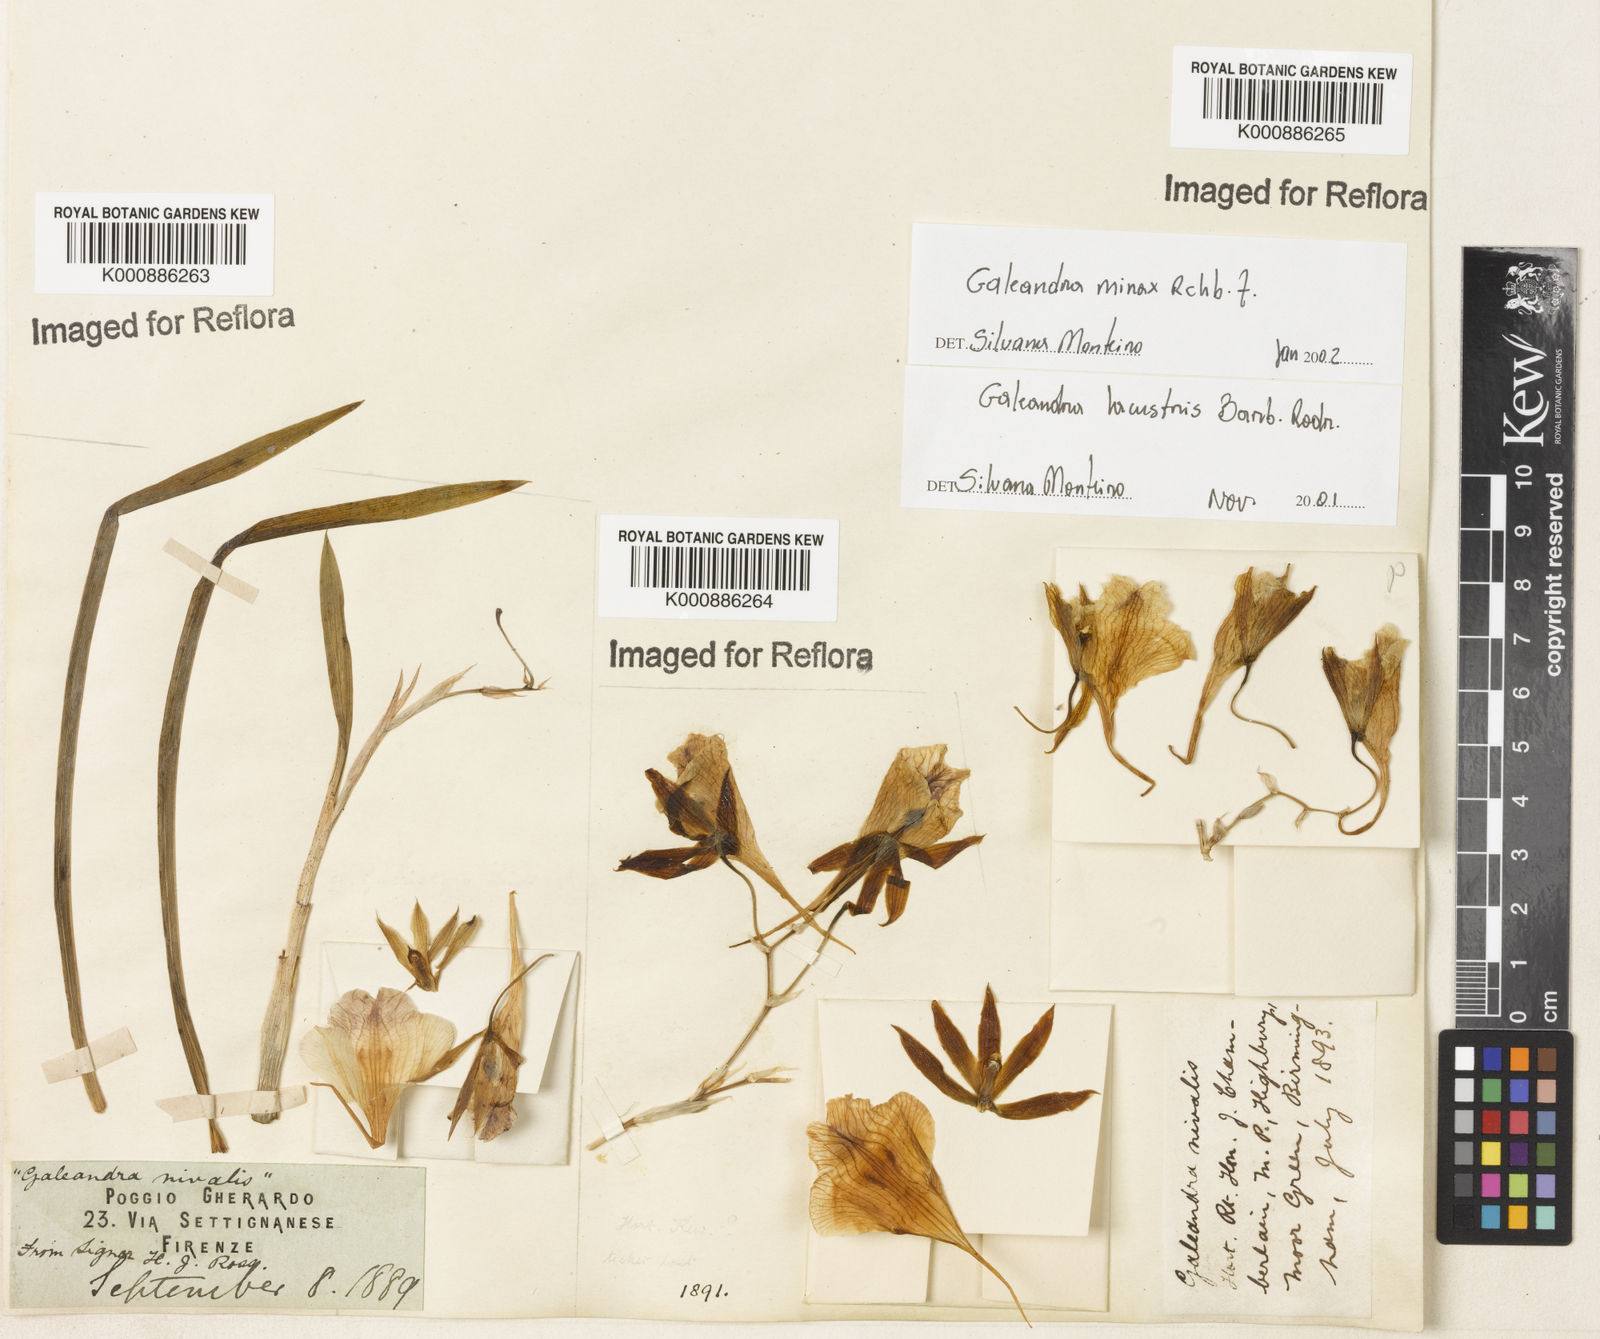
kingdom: Plantae
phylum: Tracheophyta
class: Liliopsida
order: Asparagales
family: Orchidaceae
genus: Galeandra
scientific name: Galeandra minax
